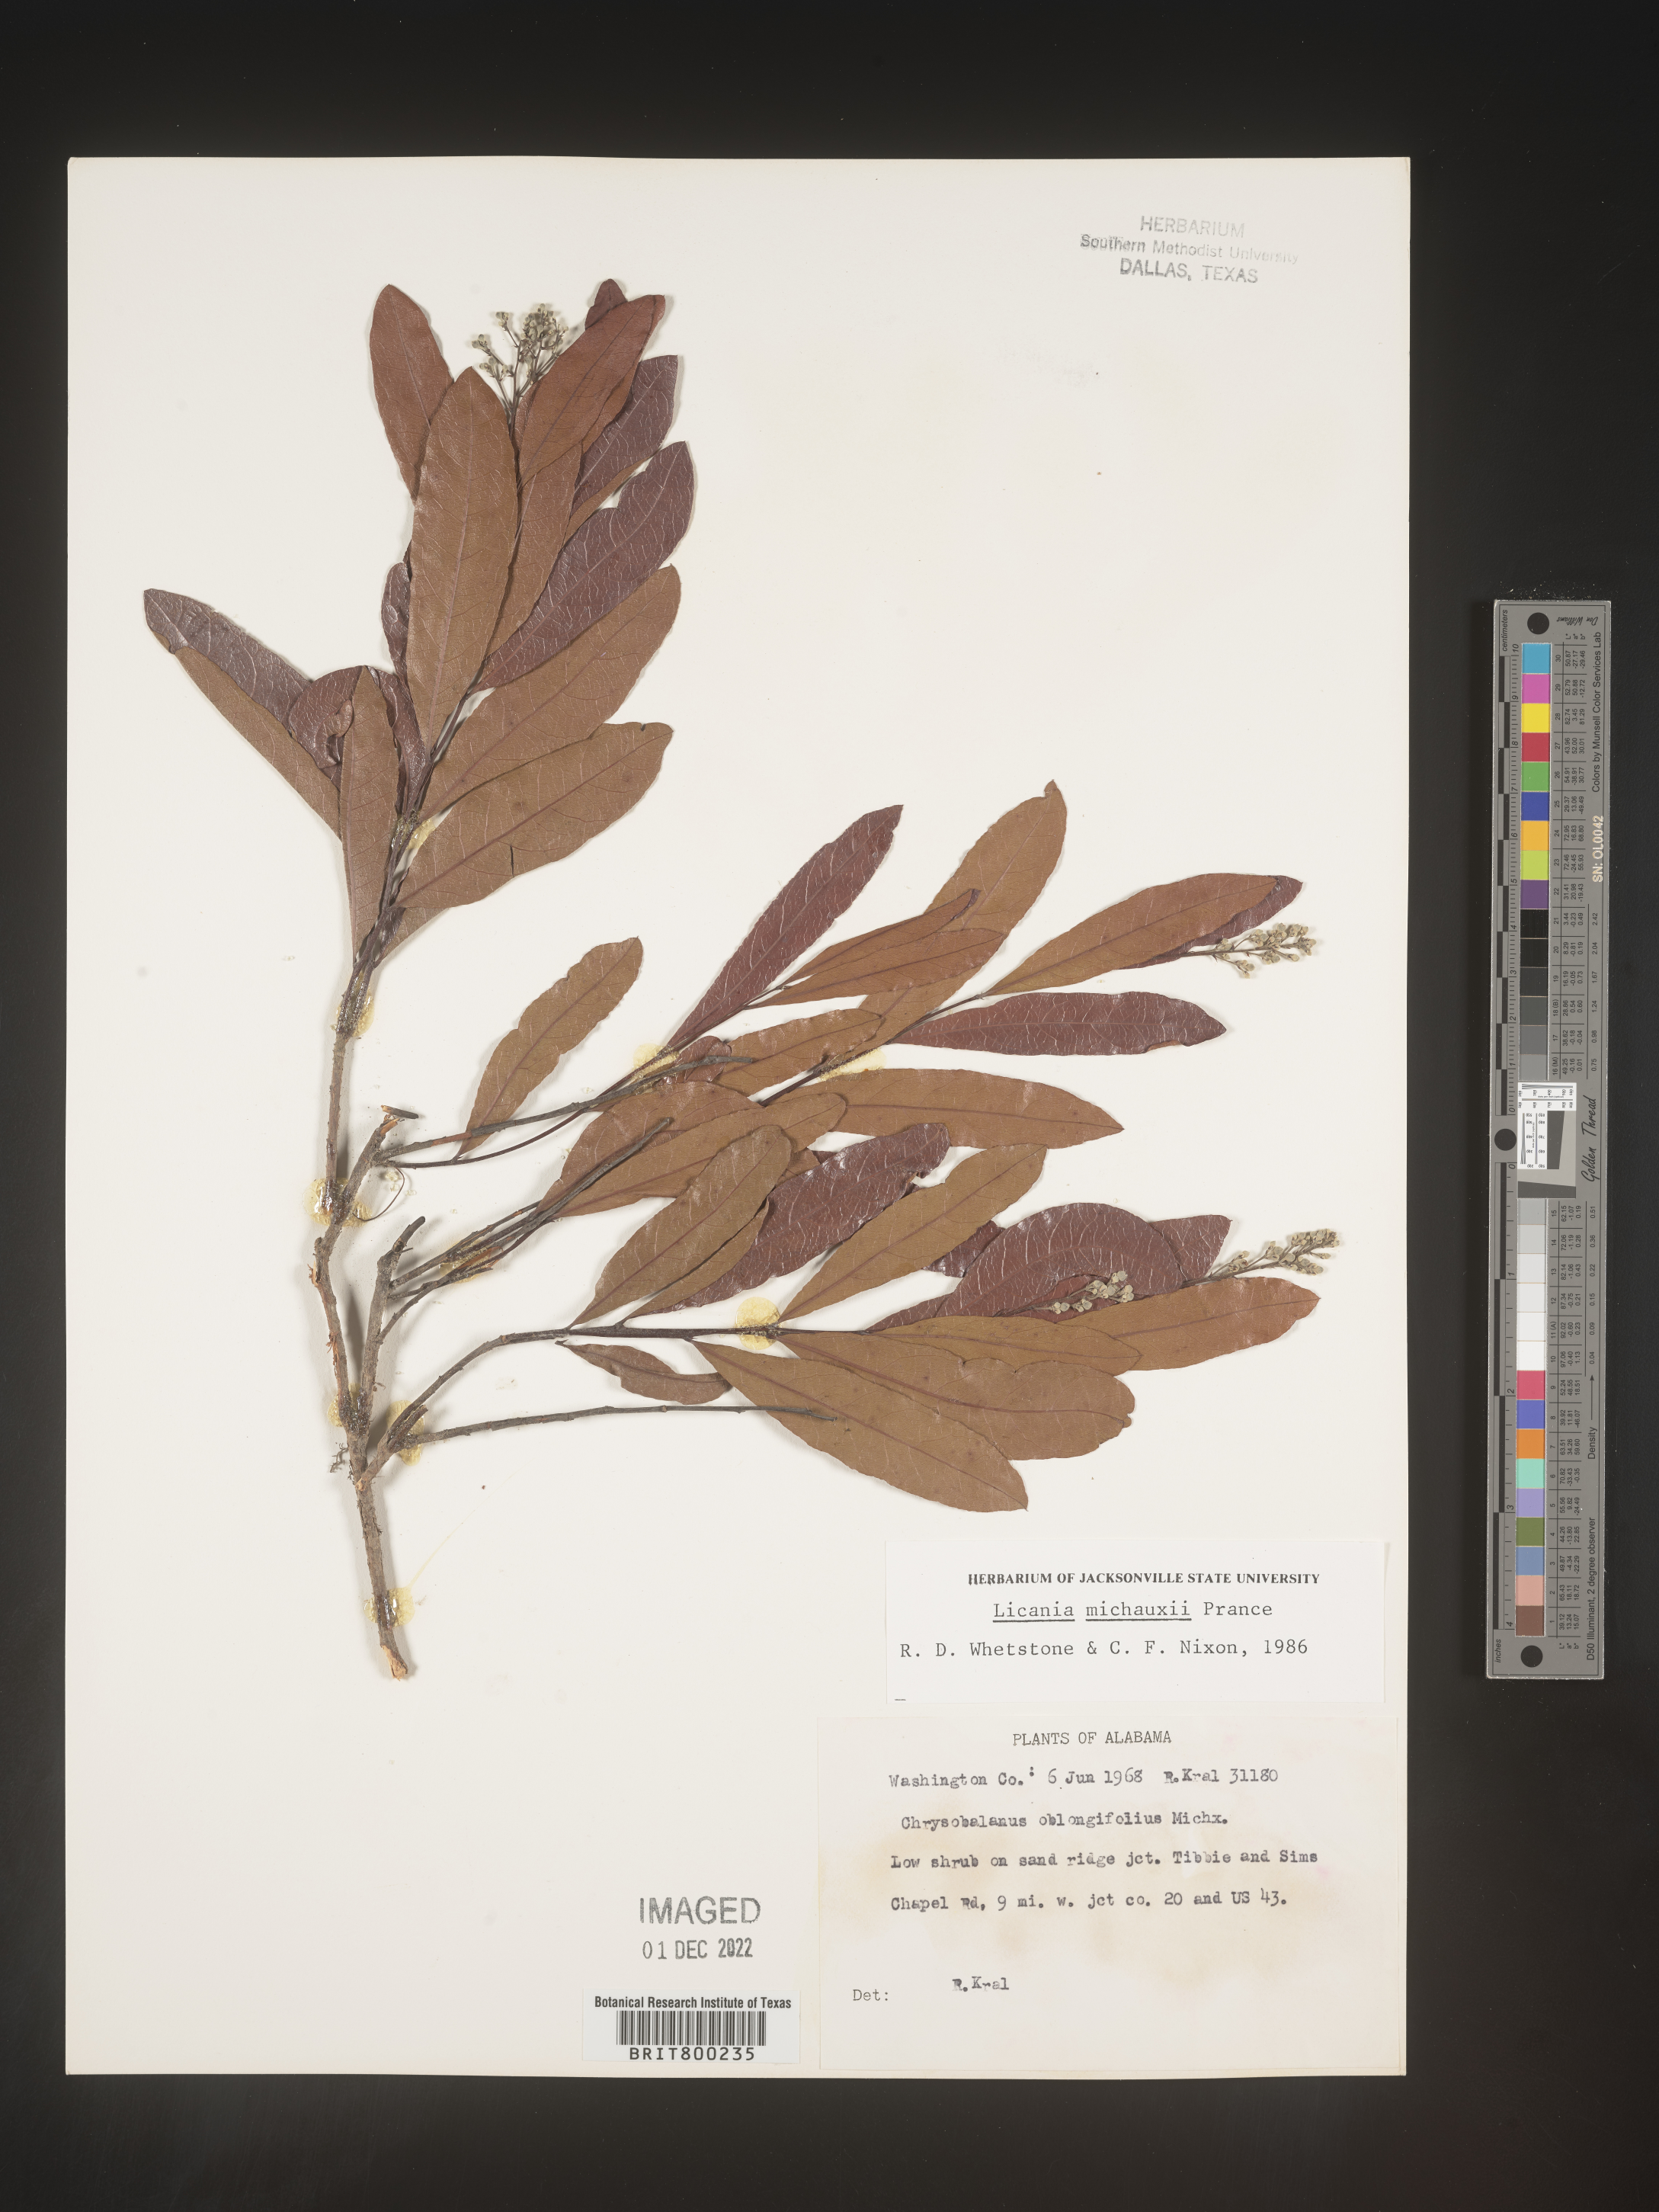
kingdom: Plantae
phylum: Tracheophyta
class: Magnoliopsida
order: Malpighiales
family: Chrysobalanaceae
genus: Geobalanus
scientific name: Geobalanus oblongifolius
